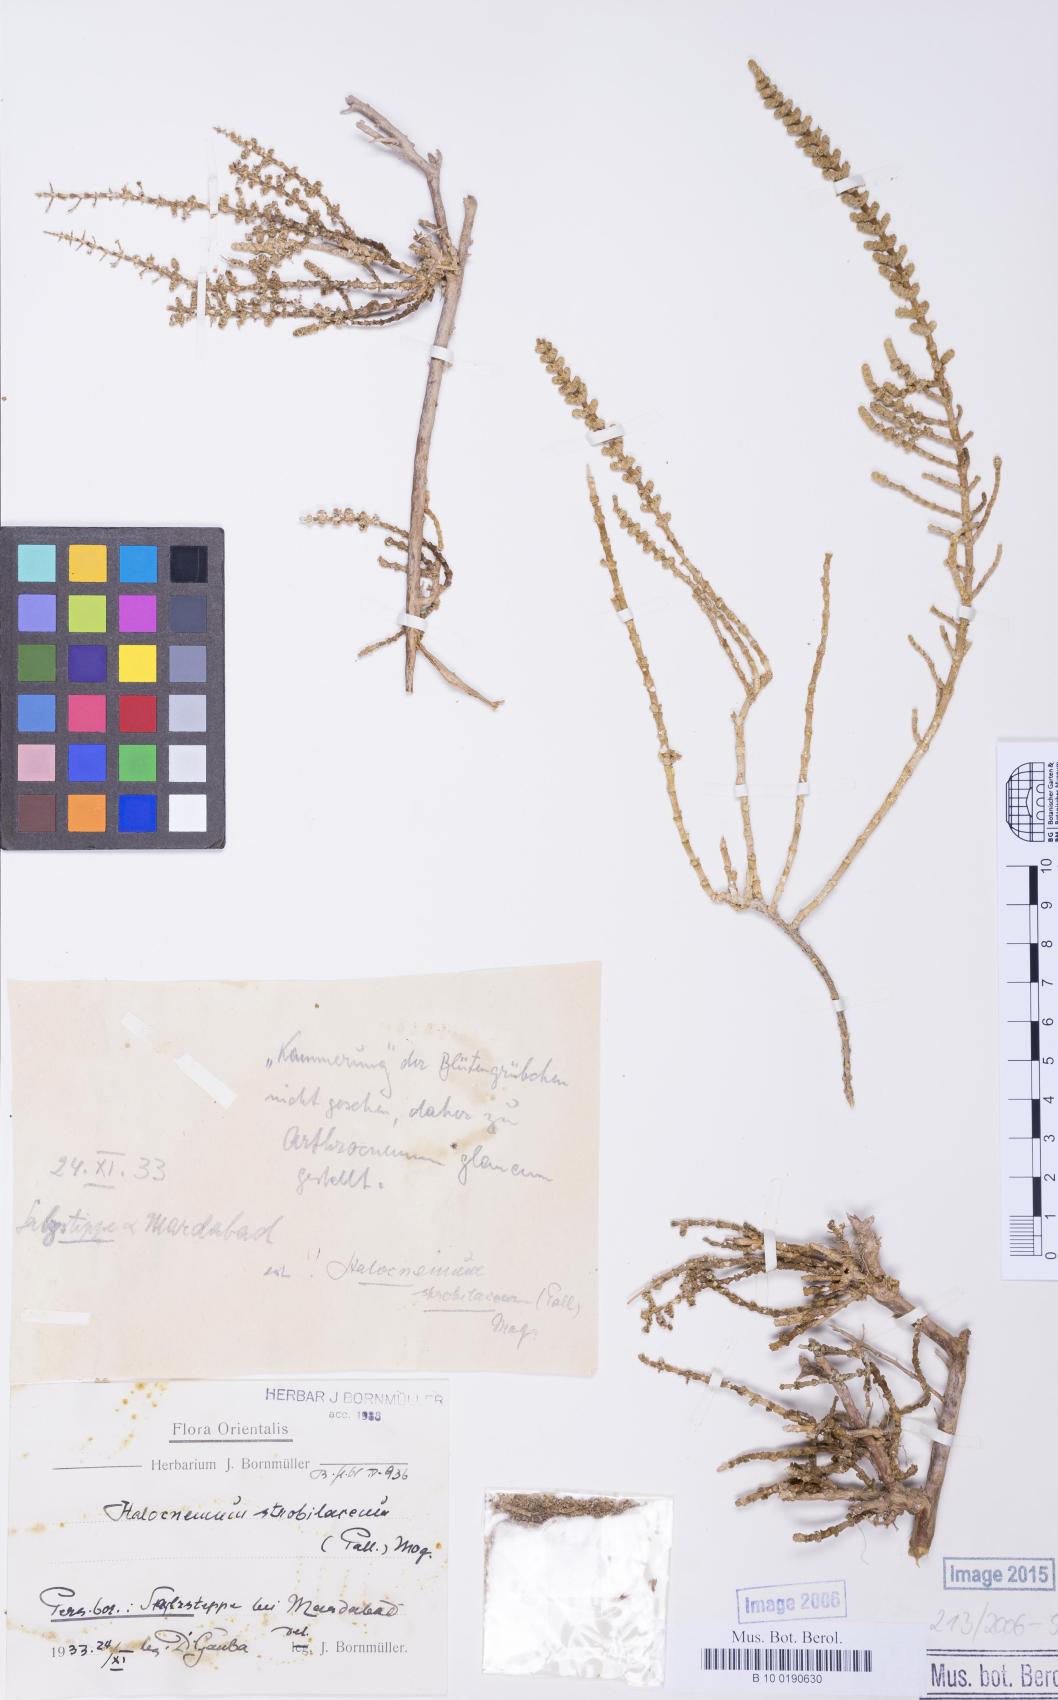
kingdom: Plantae
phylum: Tracheophyta
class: Magnoliopsida
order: Caryophyllales
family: Amaranthaceae
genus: Halocnemum
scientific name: Halocnemum strobilaceum
